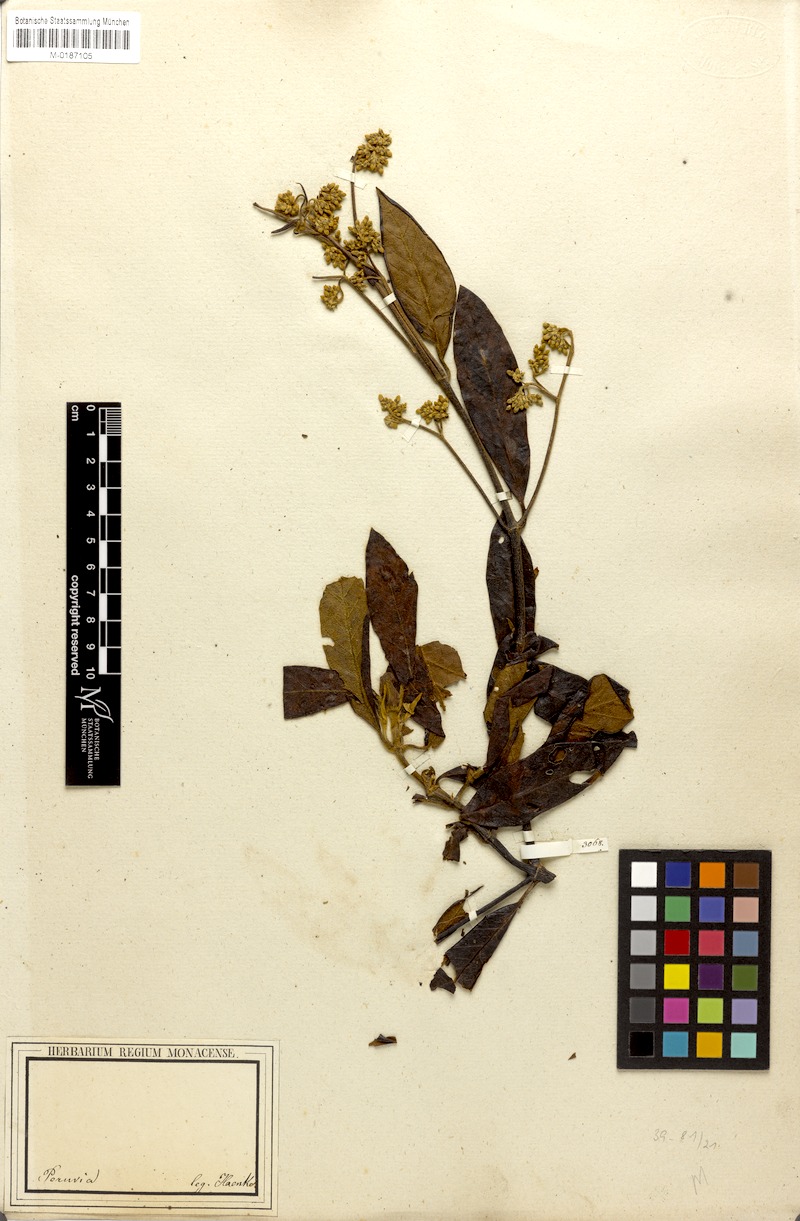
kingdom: Plantae
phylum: Tracheophyta
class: Magnoliopsida
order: Gentianales
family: Rubiaceae
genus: Cinchona
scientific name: Cinchona
